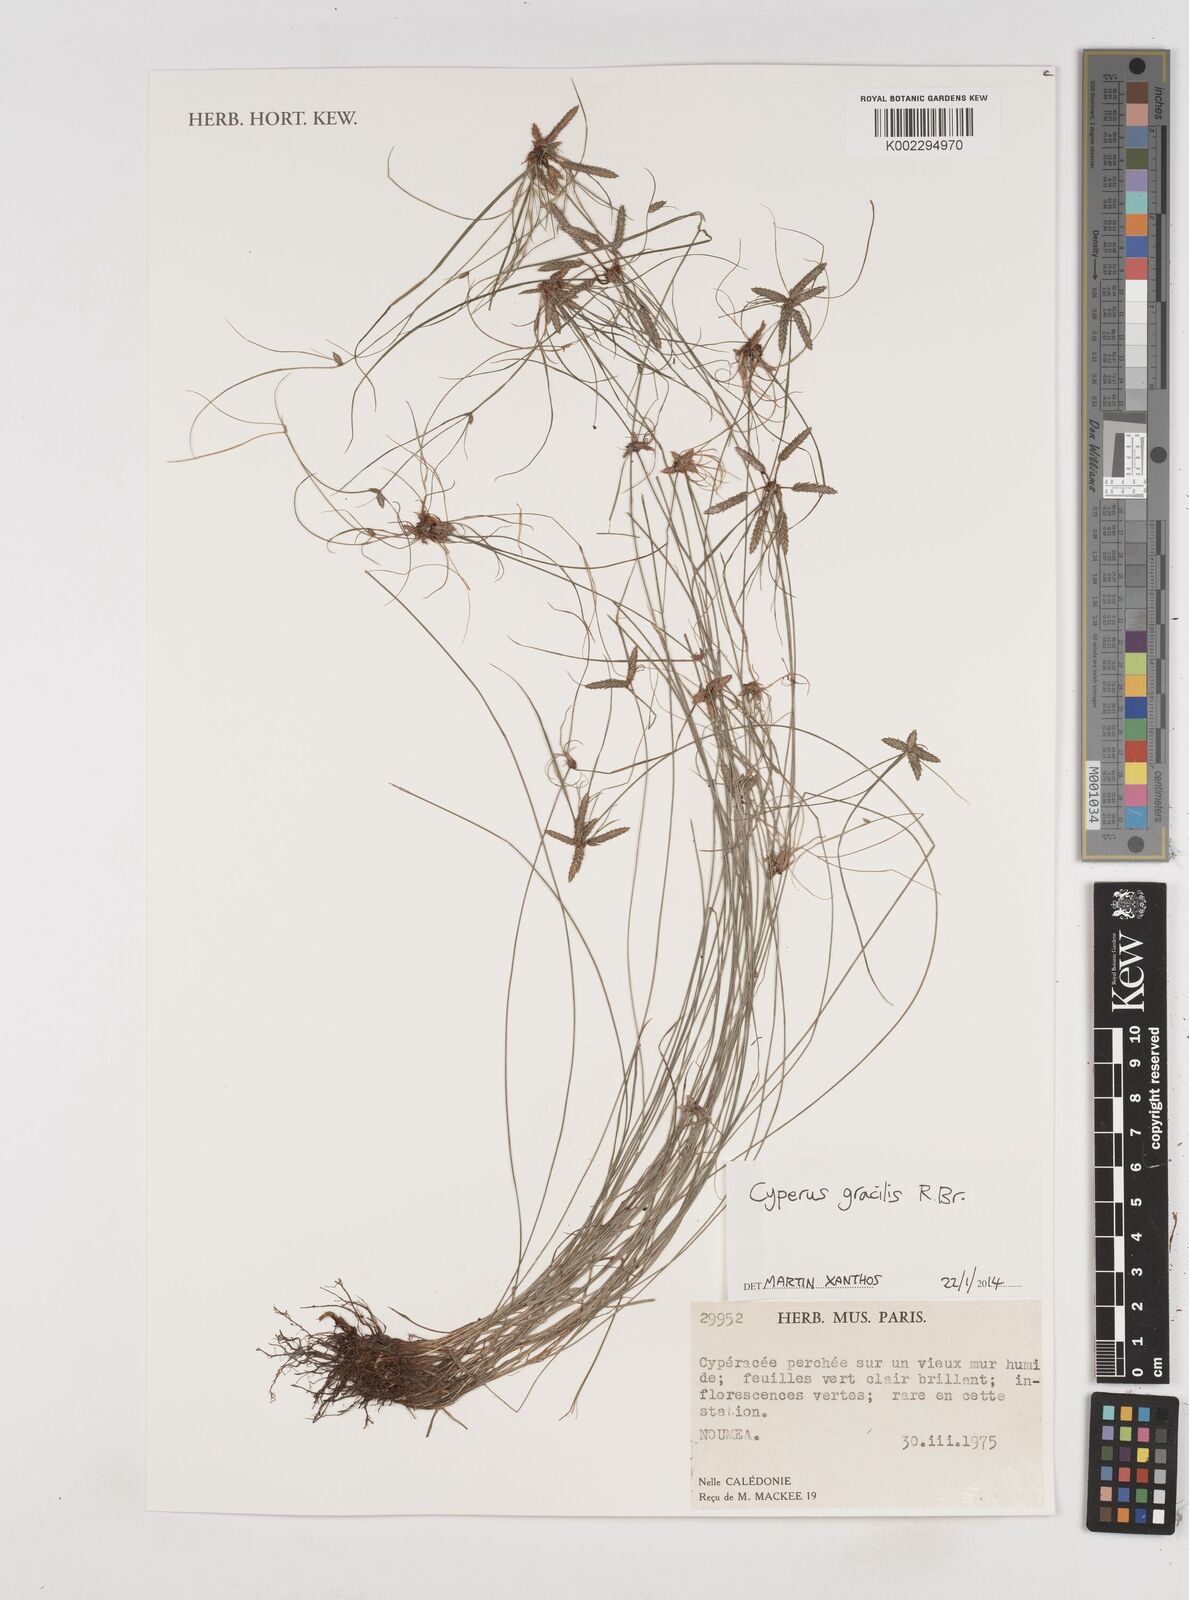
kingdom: Plantae
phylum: Tracheophyta
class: Liliopsida
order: Poales
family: Cyperaceae
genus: Cyperus
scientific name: Cyperus gracilis
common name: Slimjim flatsedge
